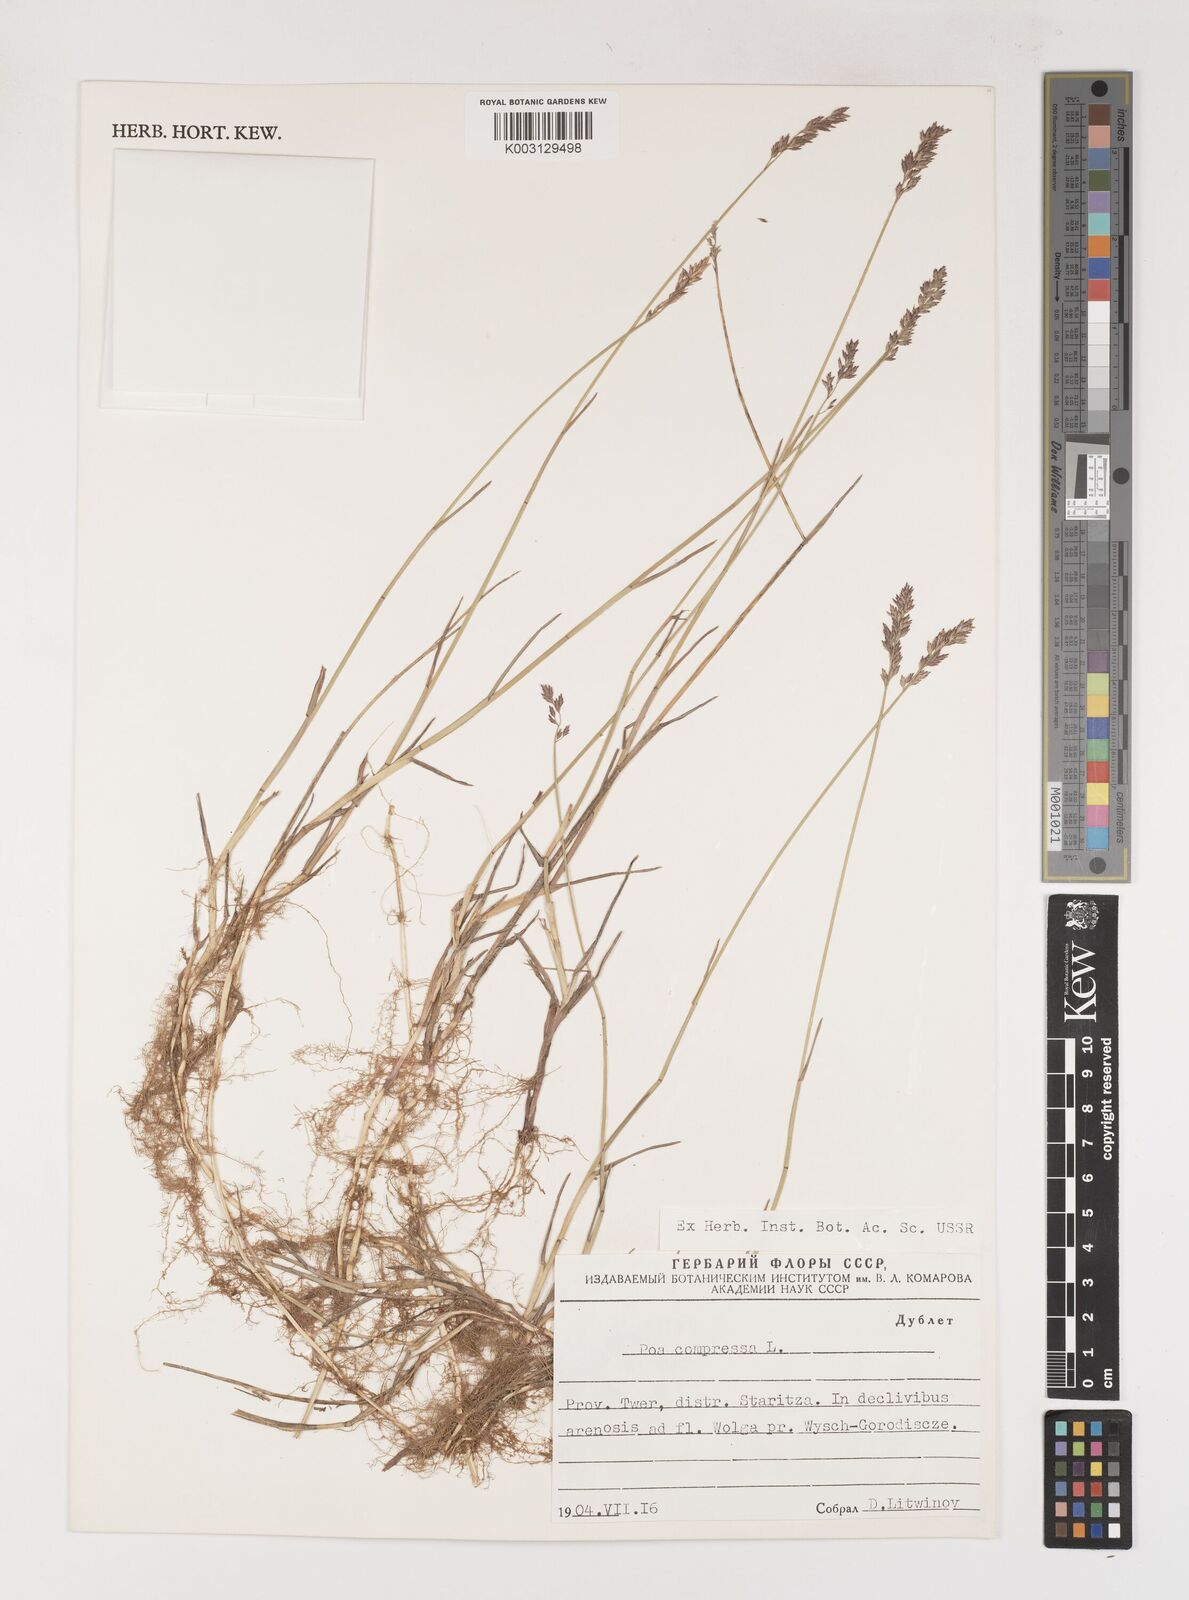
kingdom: Plantae
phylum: Tracheophyta
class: Liliopsida
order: Poales
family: Poaceae
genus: Poa
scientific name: Poa compressa
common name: Canada bluegrass
